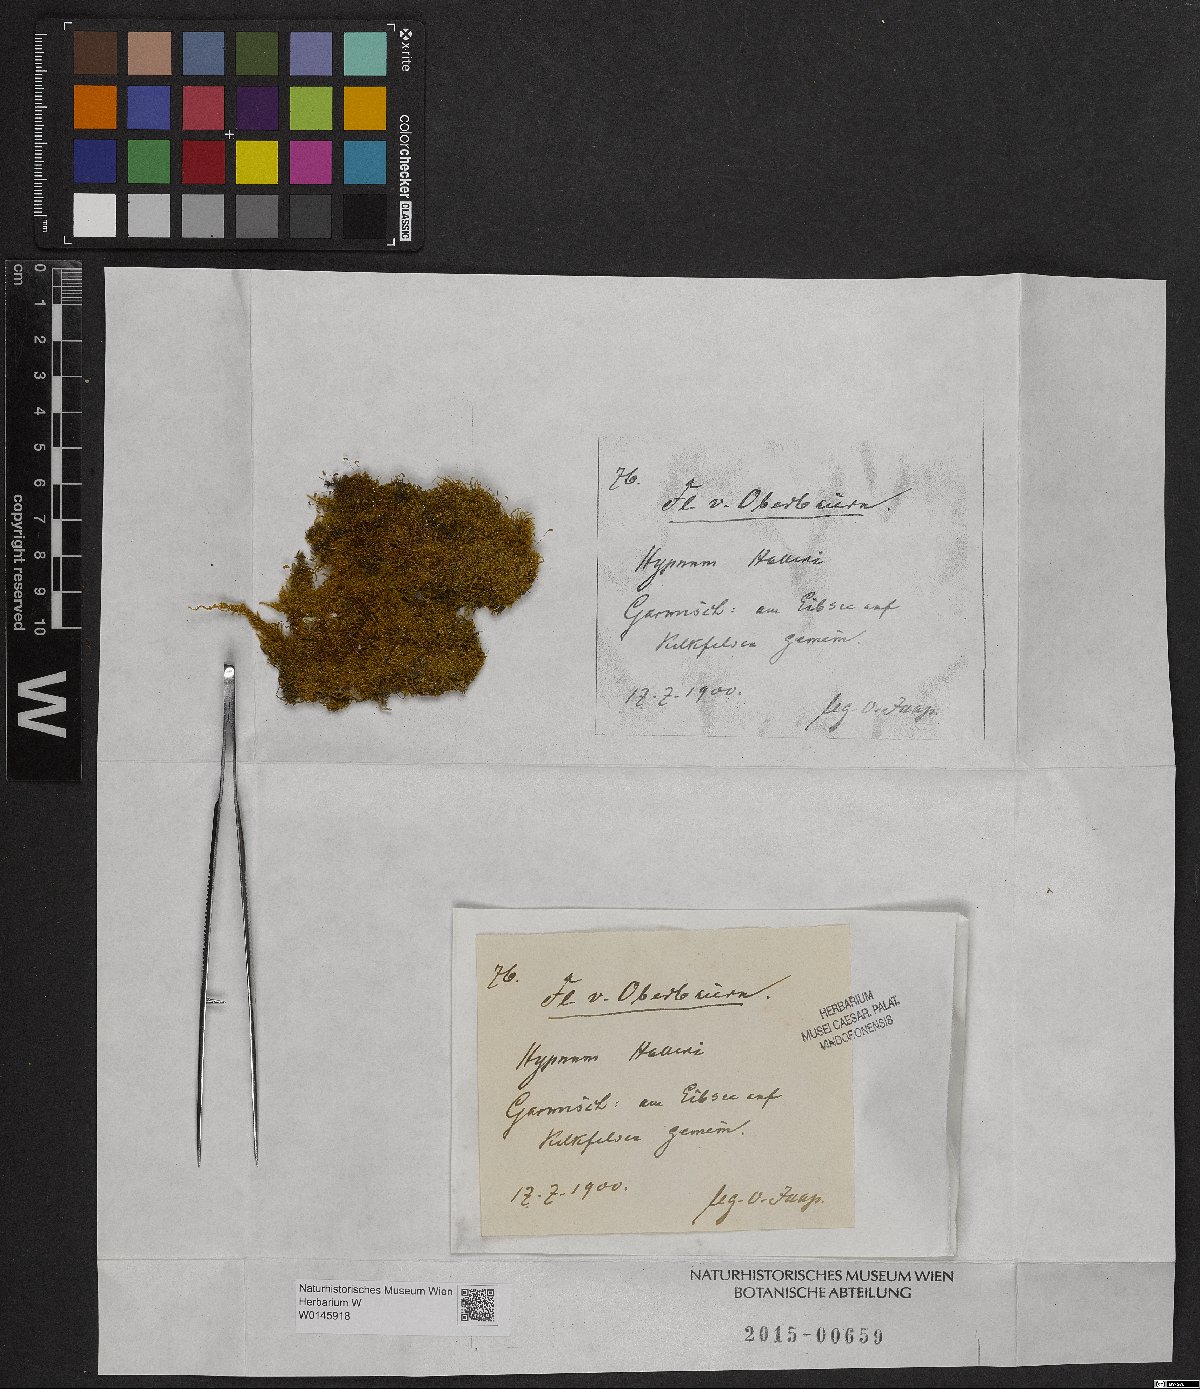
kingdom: Plantae
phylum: Bryophyta
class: Bryopsida
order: Hypnales
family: Amblystegiaceae
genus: Campylophyllum
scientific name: Campylophyllum halleri
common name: Haller's fine wet moss
